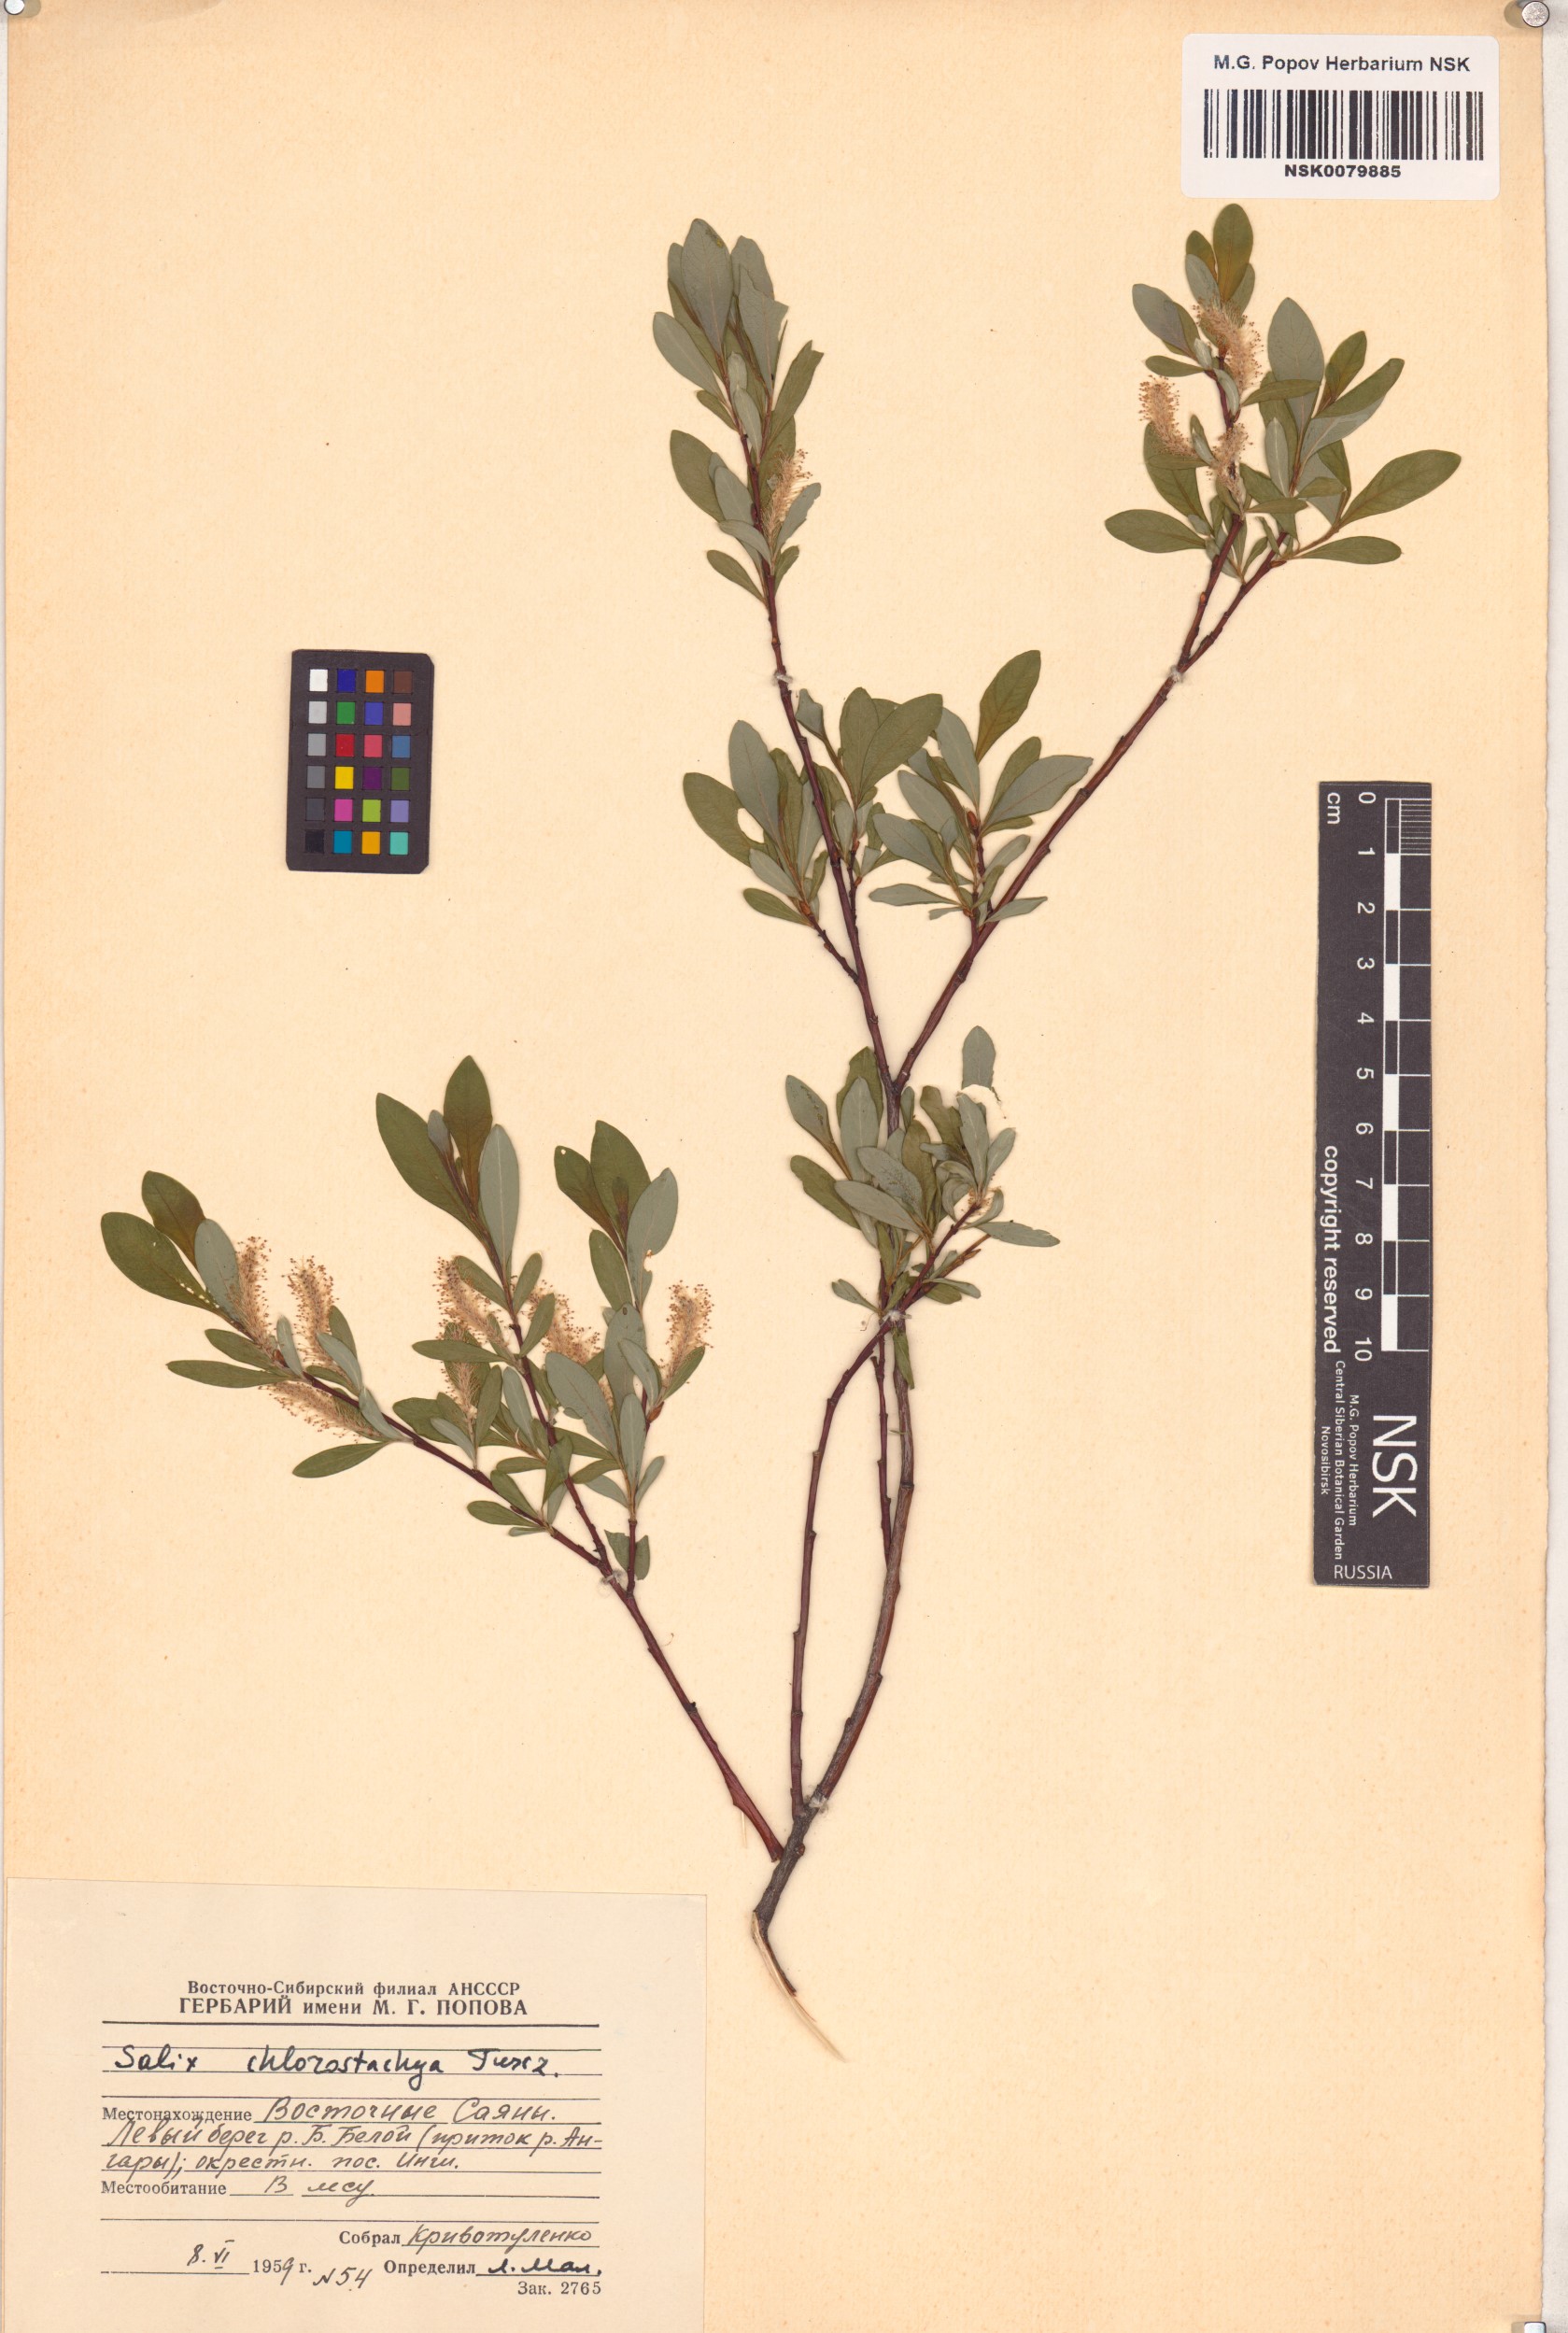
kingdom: Plantae
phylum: Tracheophyta
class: Magnoliopsida
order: Malpighiales
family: Salicaceae
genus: Salix
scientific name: Salix rhamnifolia
